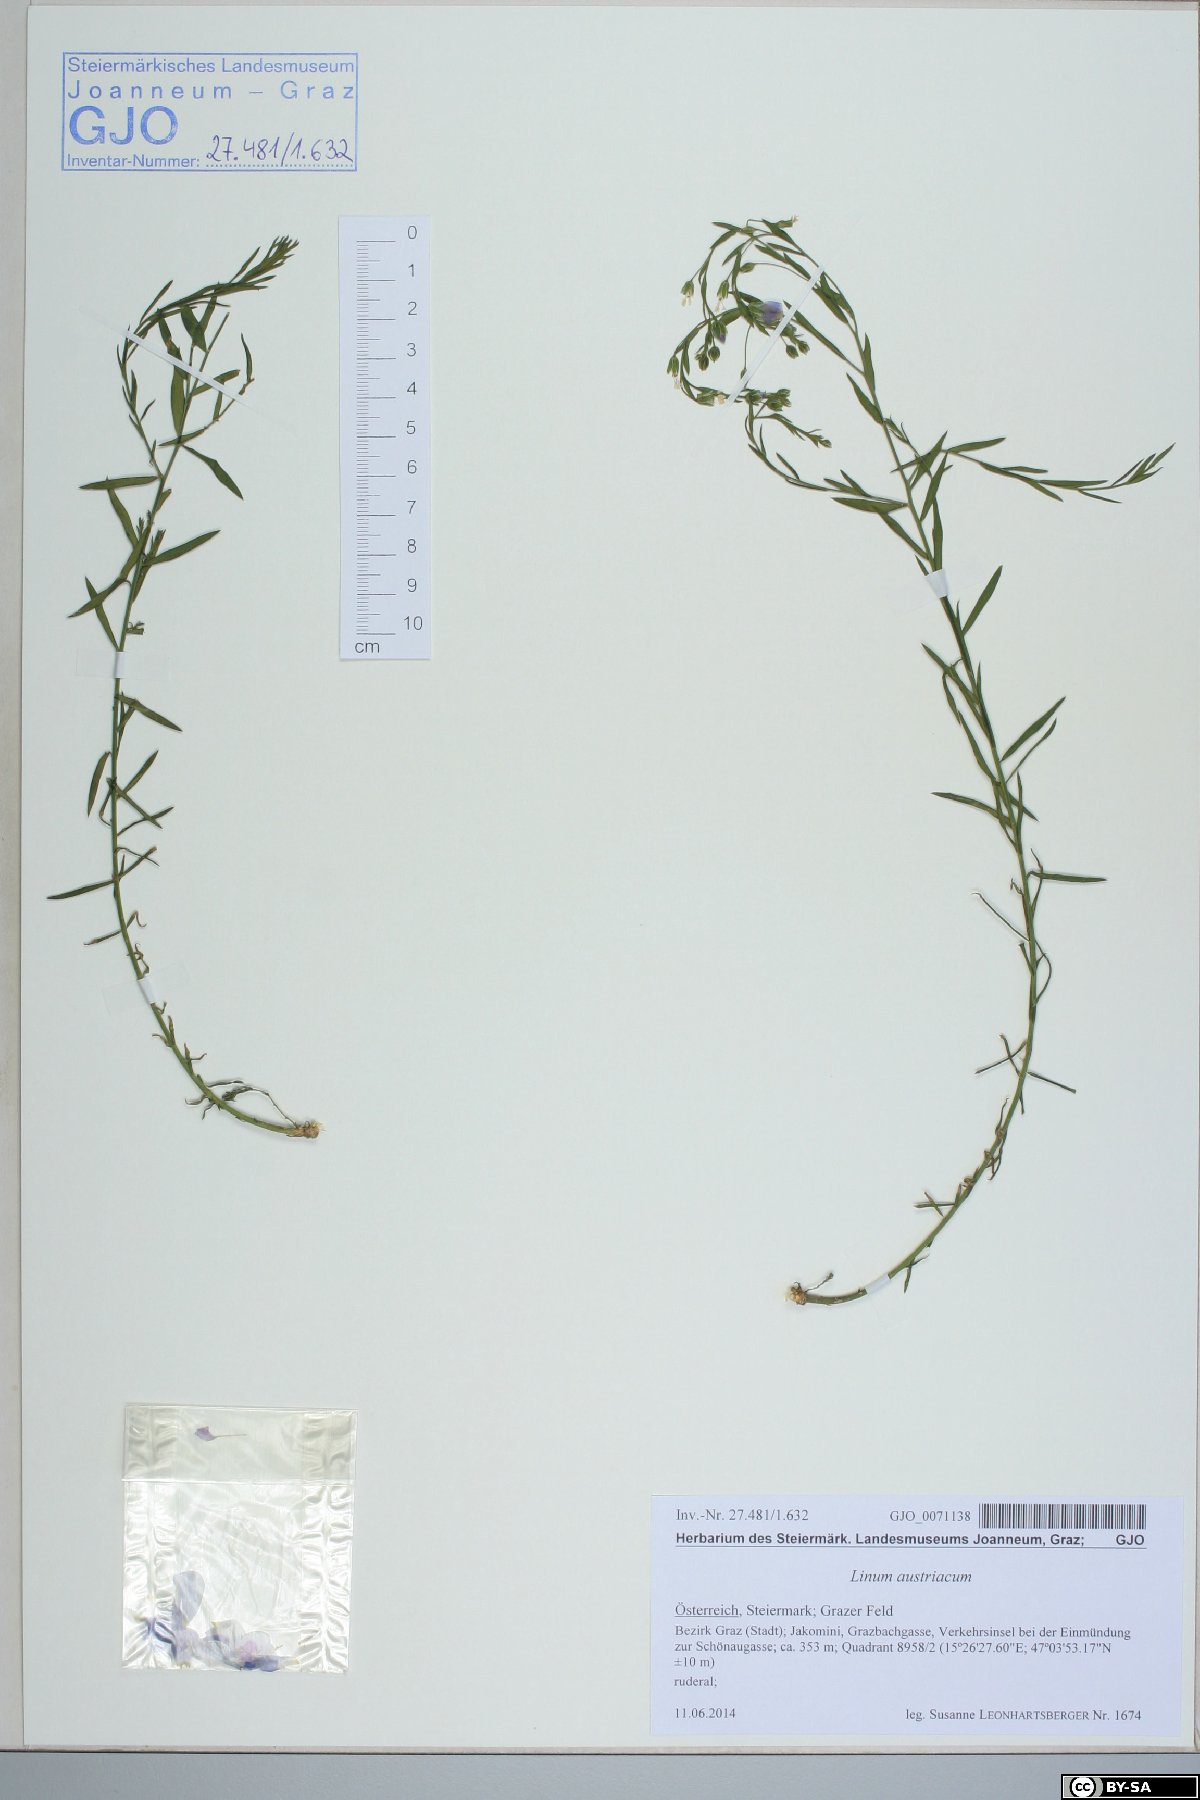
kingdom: Plantae
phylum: Tracheophyta
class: Magnoliopsida
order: Malpighiales
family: Linaceae
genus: Linum
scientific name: Linum austriacum
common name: Austrian flax
